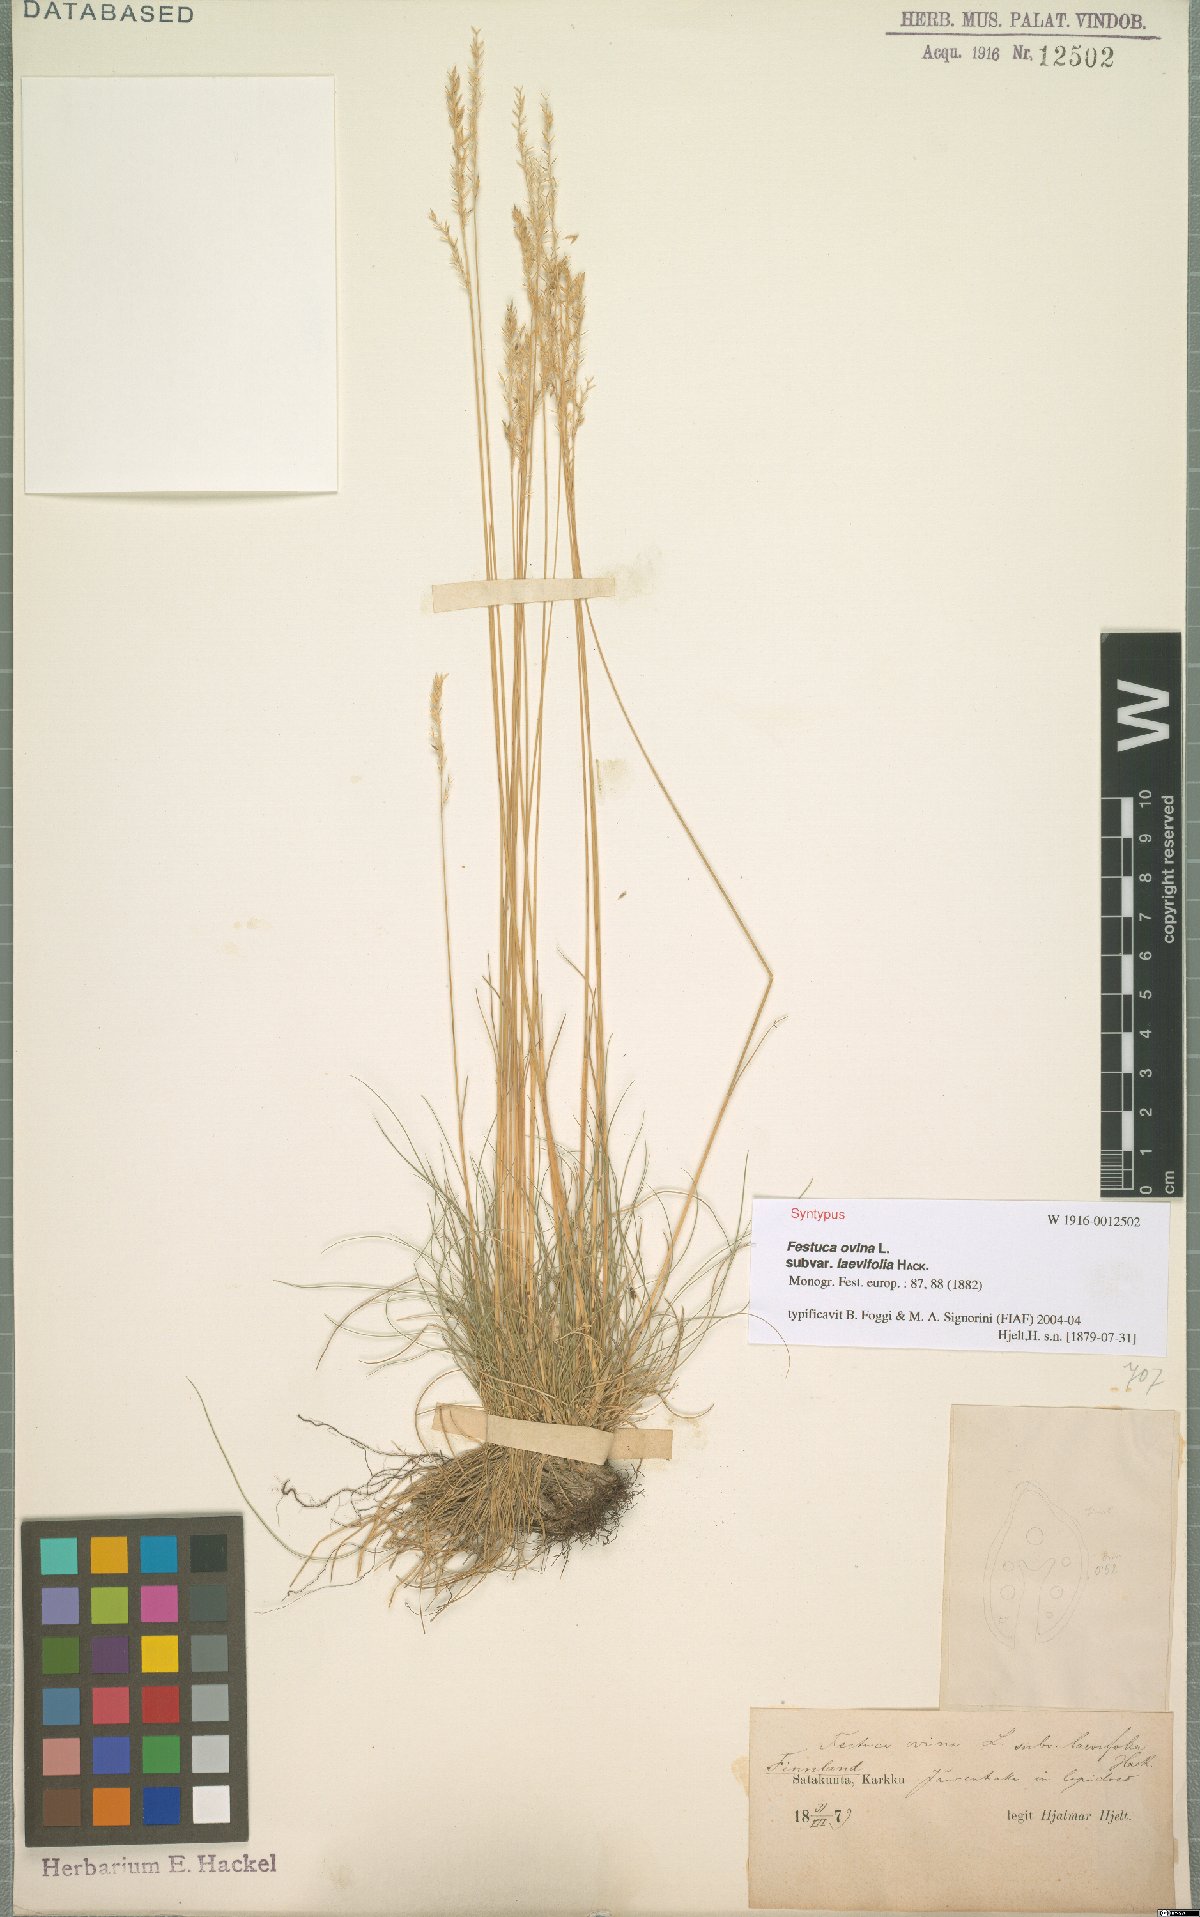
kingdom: Plantae
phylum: Tracheophyta
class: Liliopsida
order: Poales
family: Poaceae
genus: Festuca
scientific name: Festuca ovina
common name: Sheep fescue
